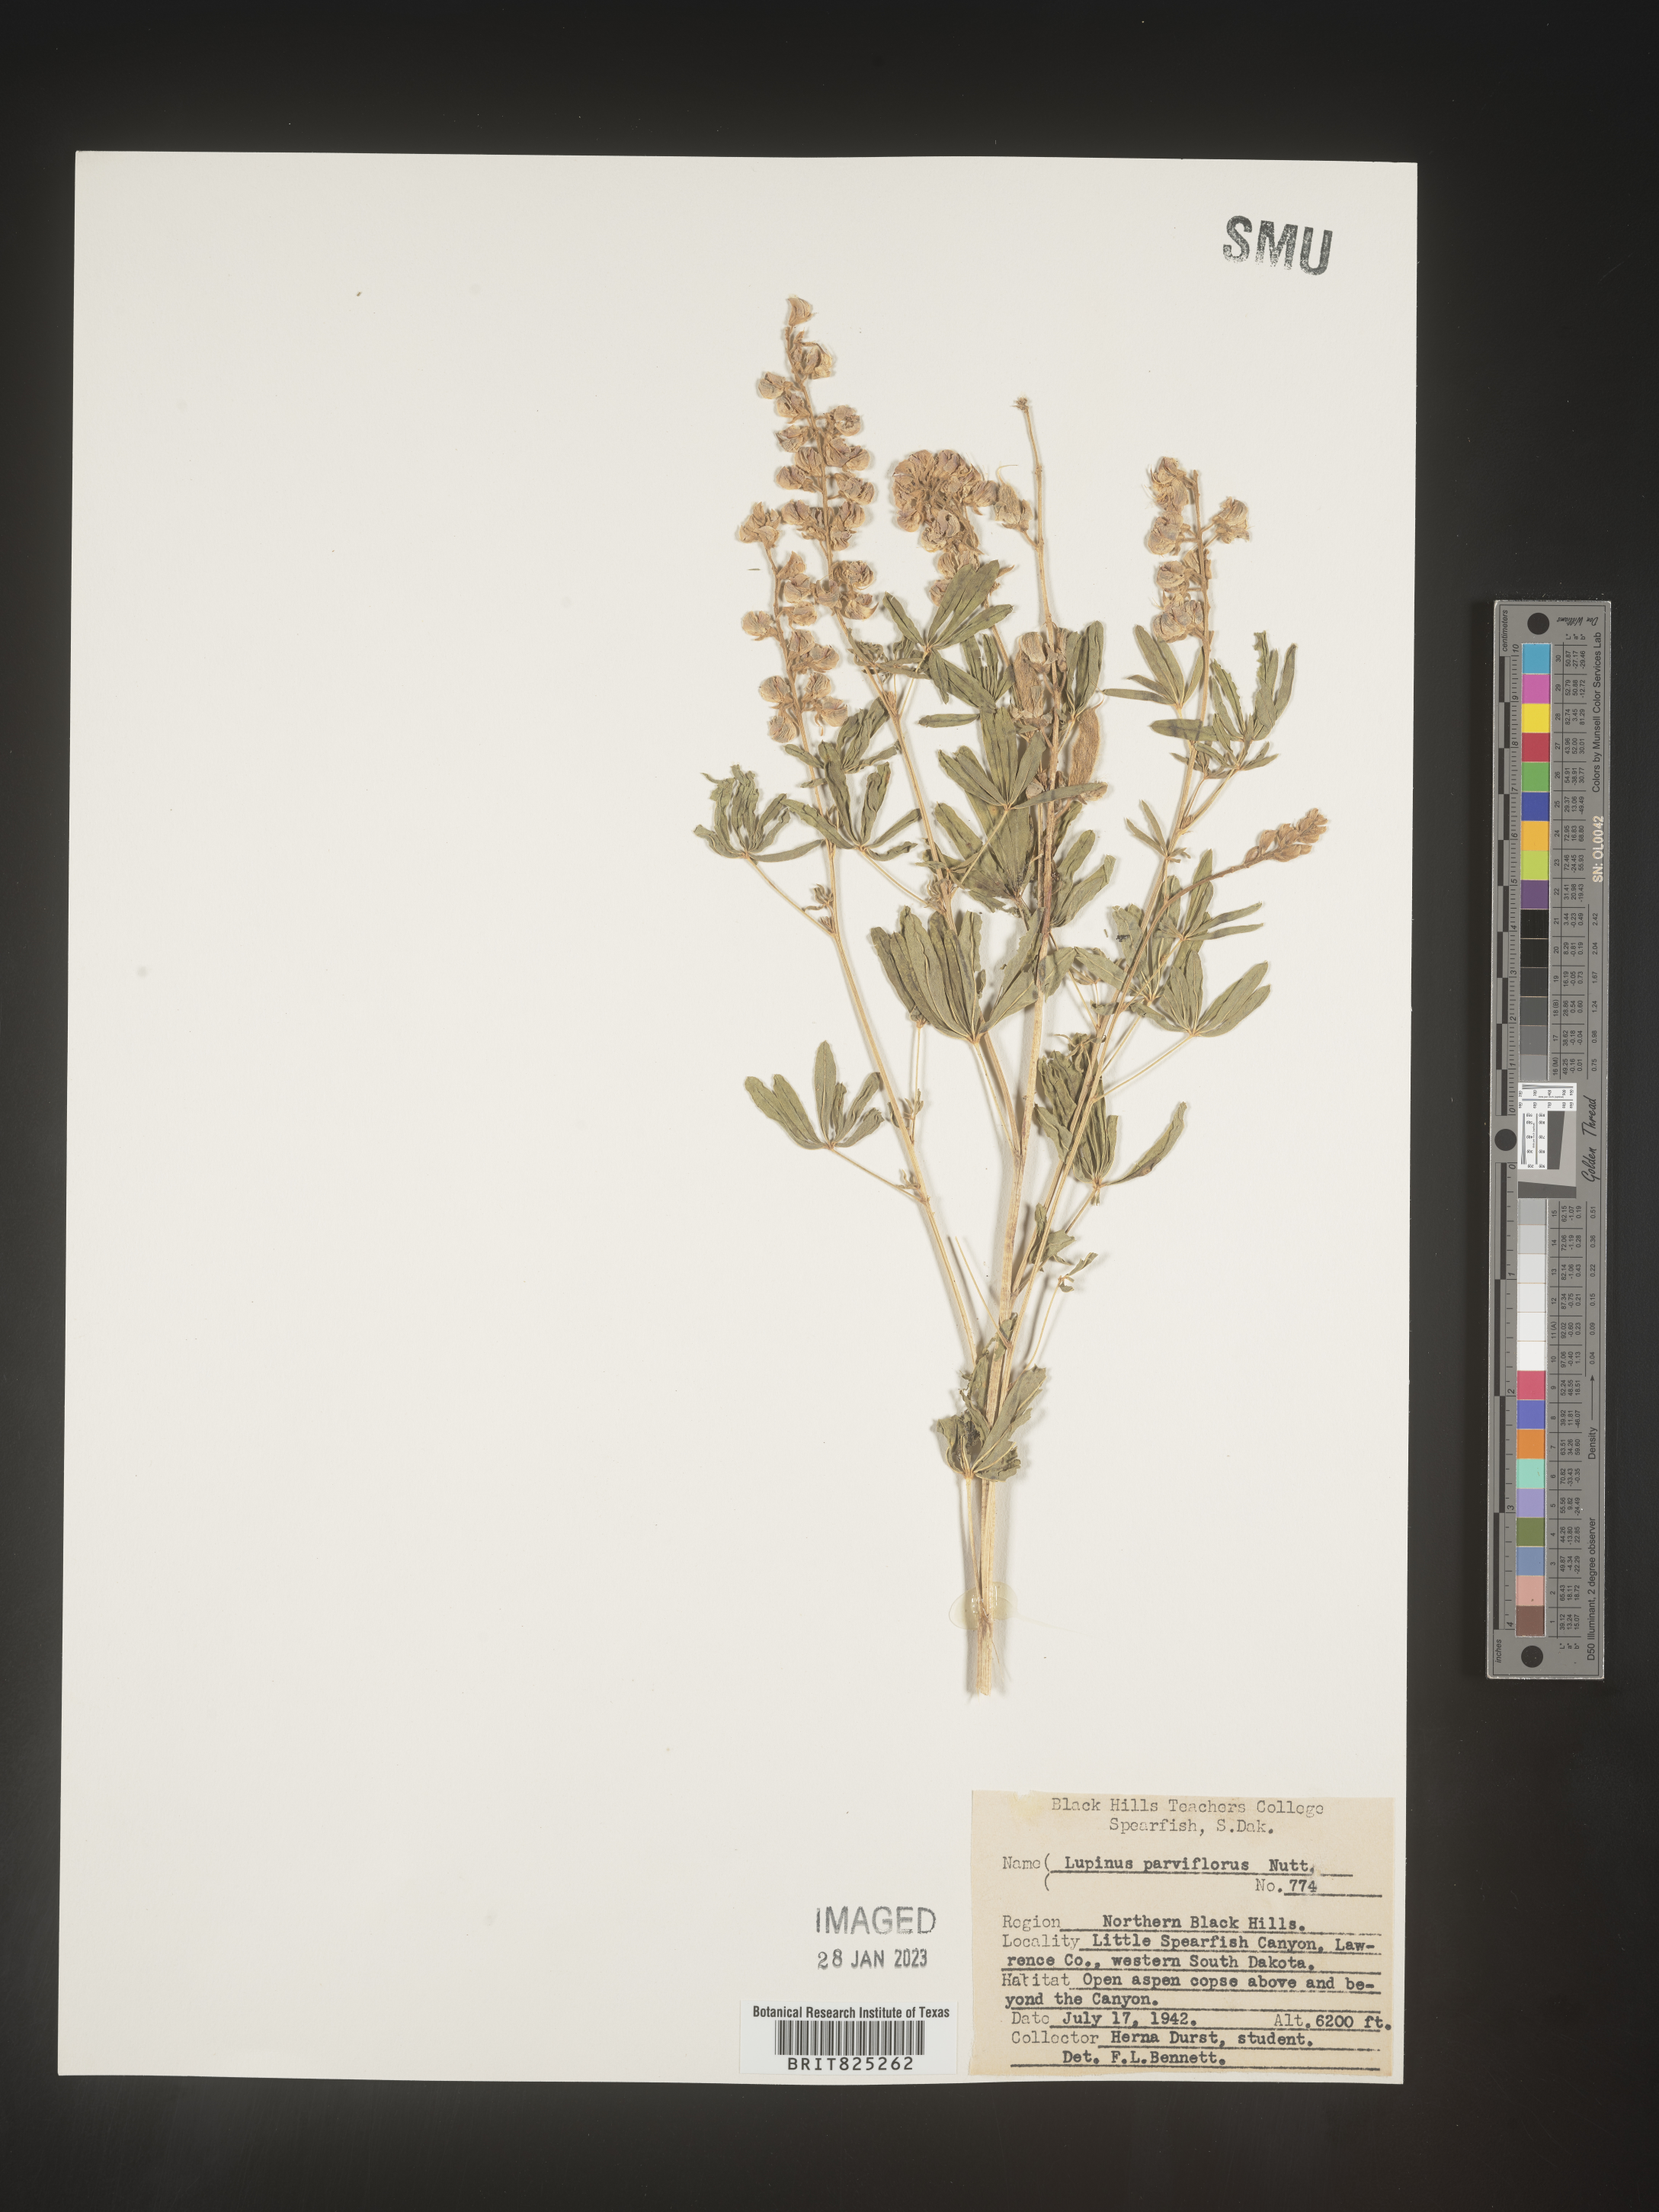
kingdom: Plantae
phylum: Tracheophyta
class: Magnoliopsida
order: Fabales
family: Fabaceae
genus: Lupinus
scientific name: Lupinus
